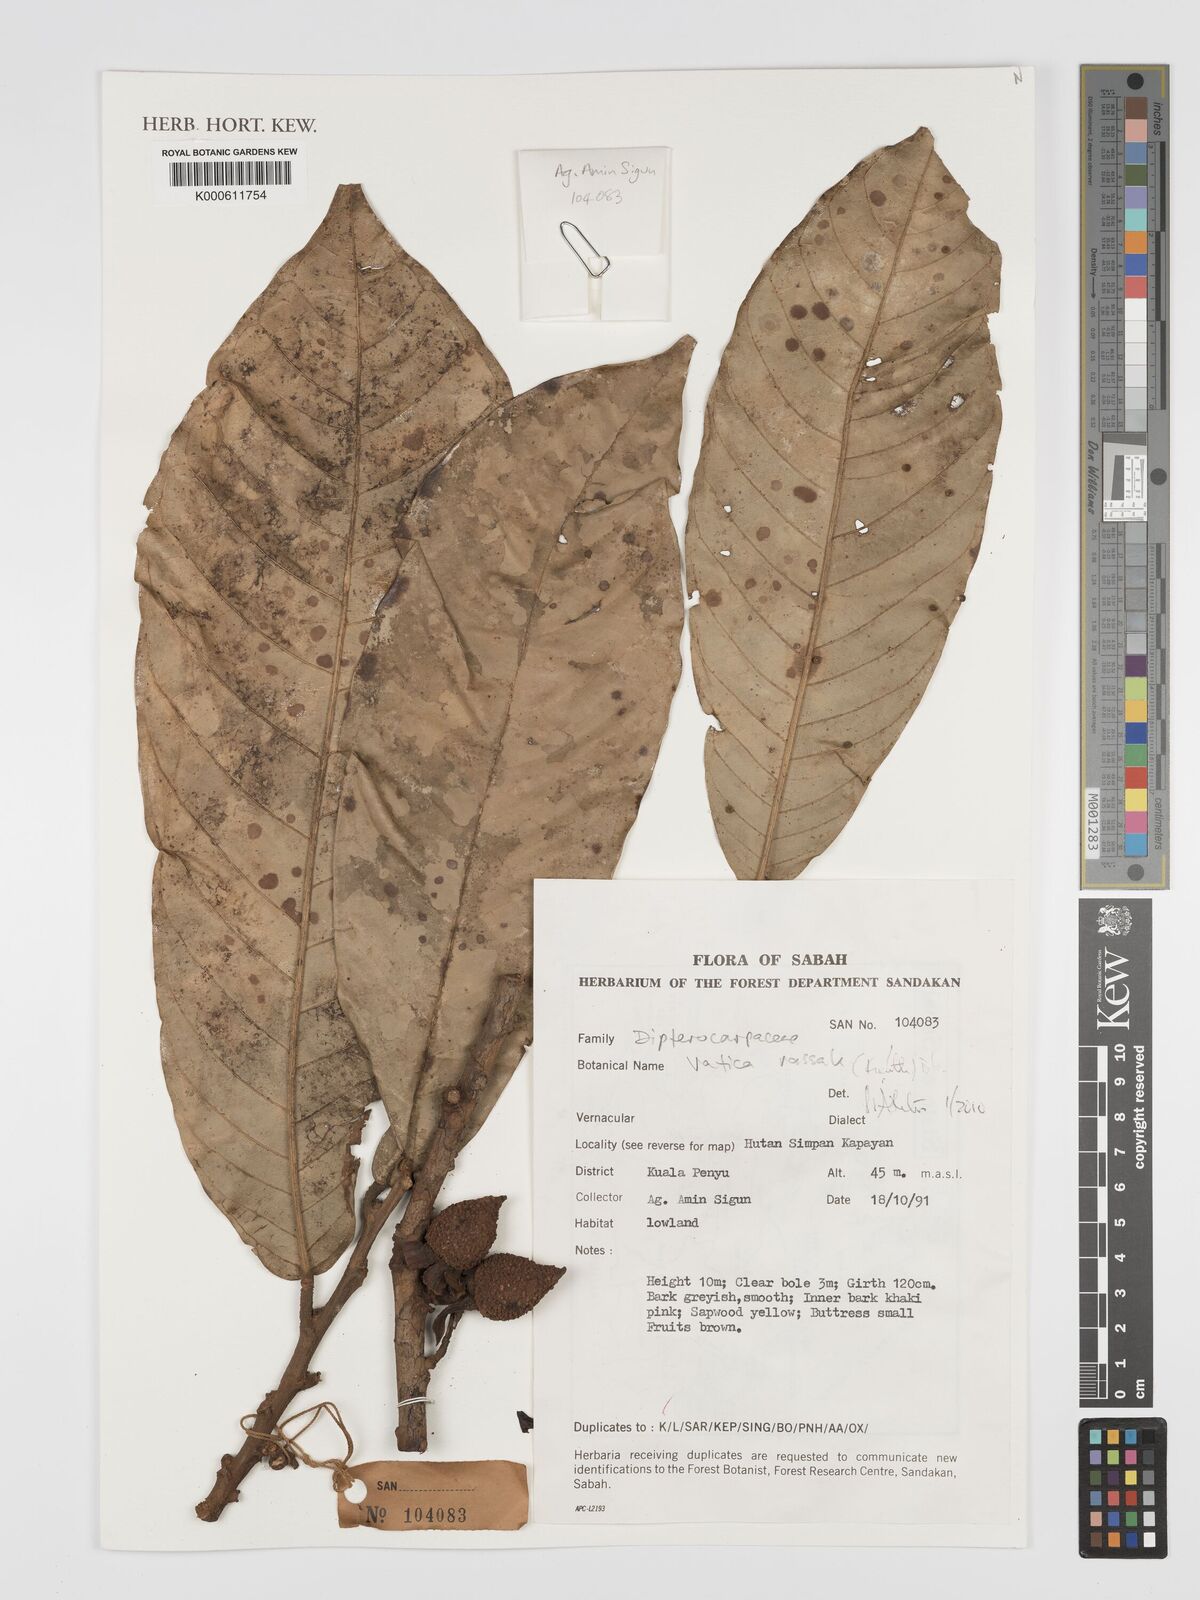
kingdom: Plantae
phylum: Tracheophyta
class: Magnoliopsida
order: Malvales
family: Dipterocarpaceae
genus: Vatica
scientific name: Vatica rassak
